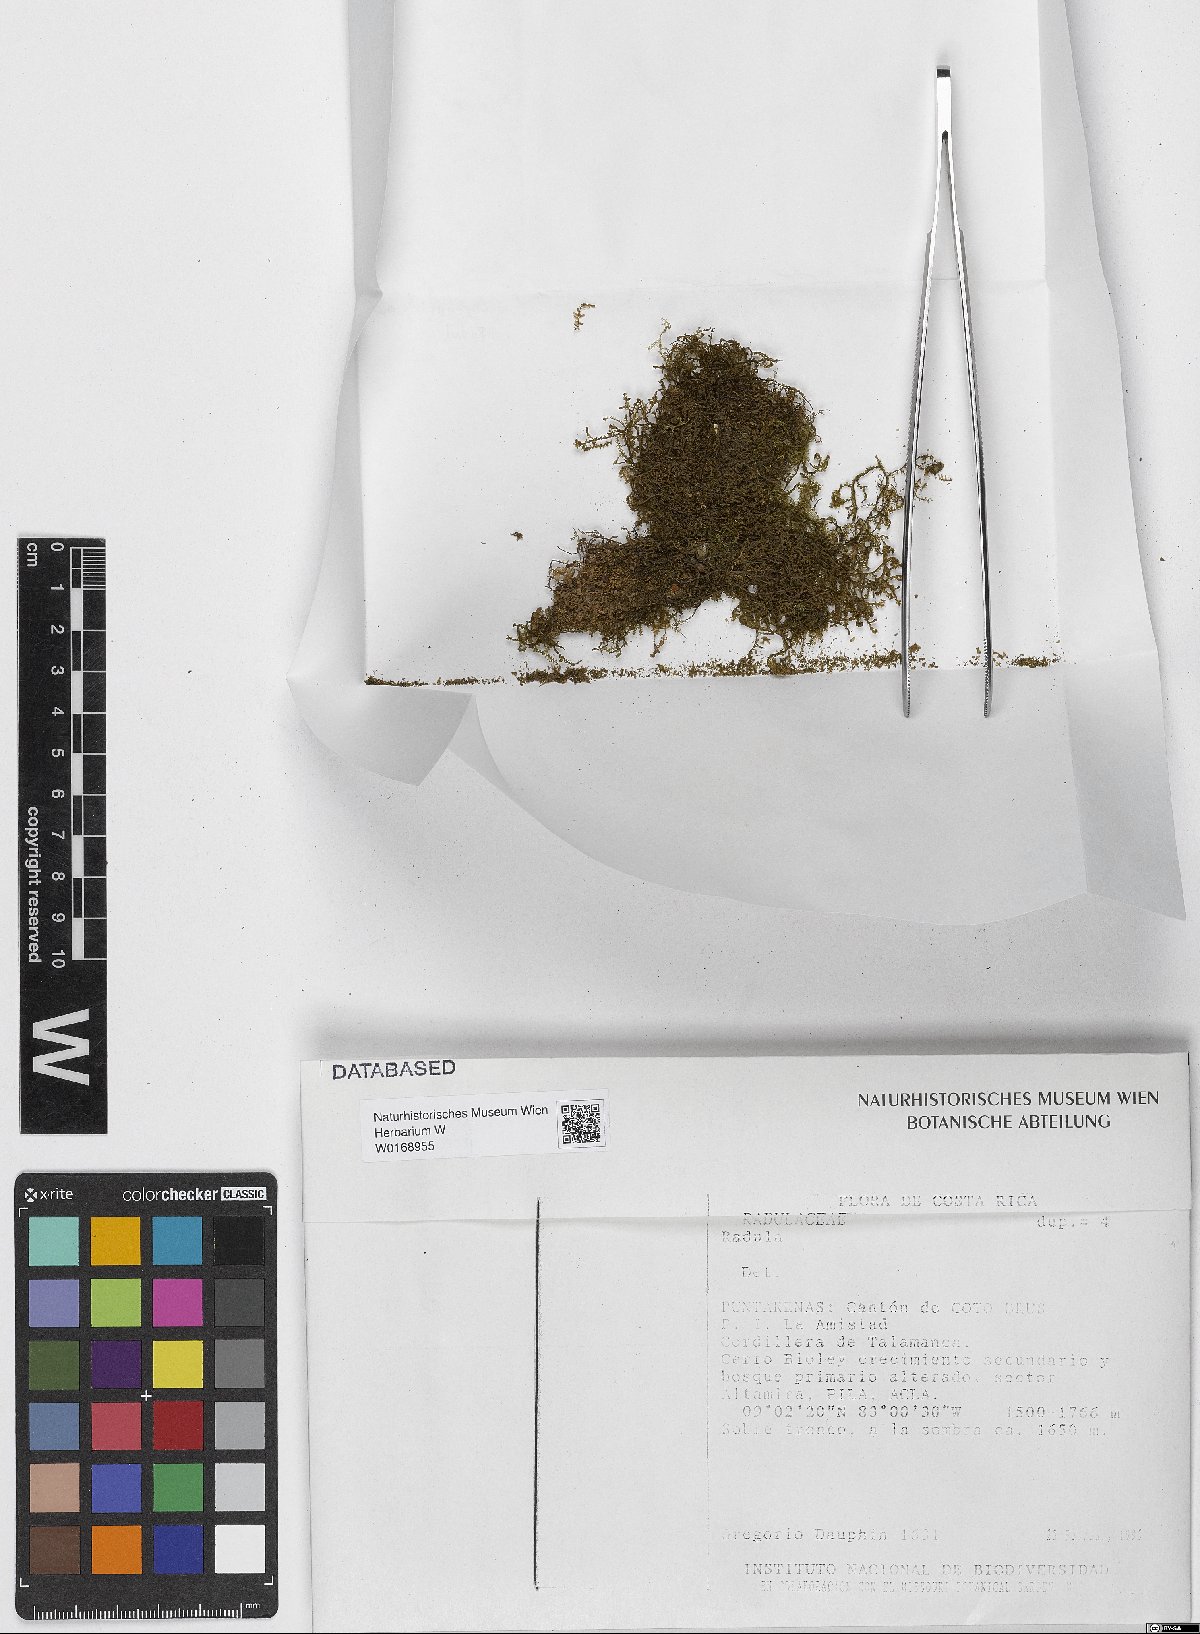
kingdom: Plantae
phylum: Marchantiophyta
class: Jungermanniopsida
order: Porellales
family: Radulaceae
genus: Radula
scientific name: Radula
